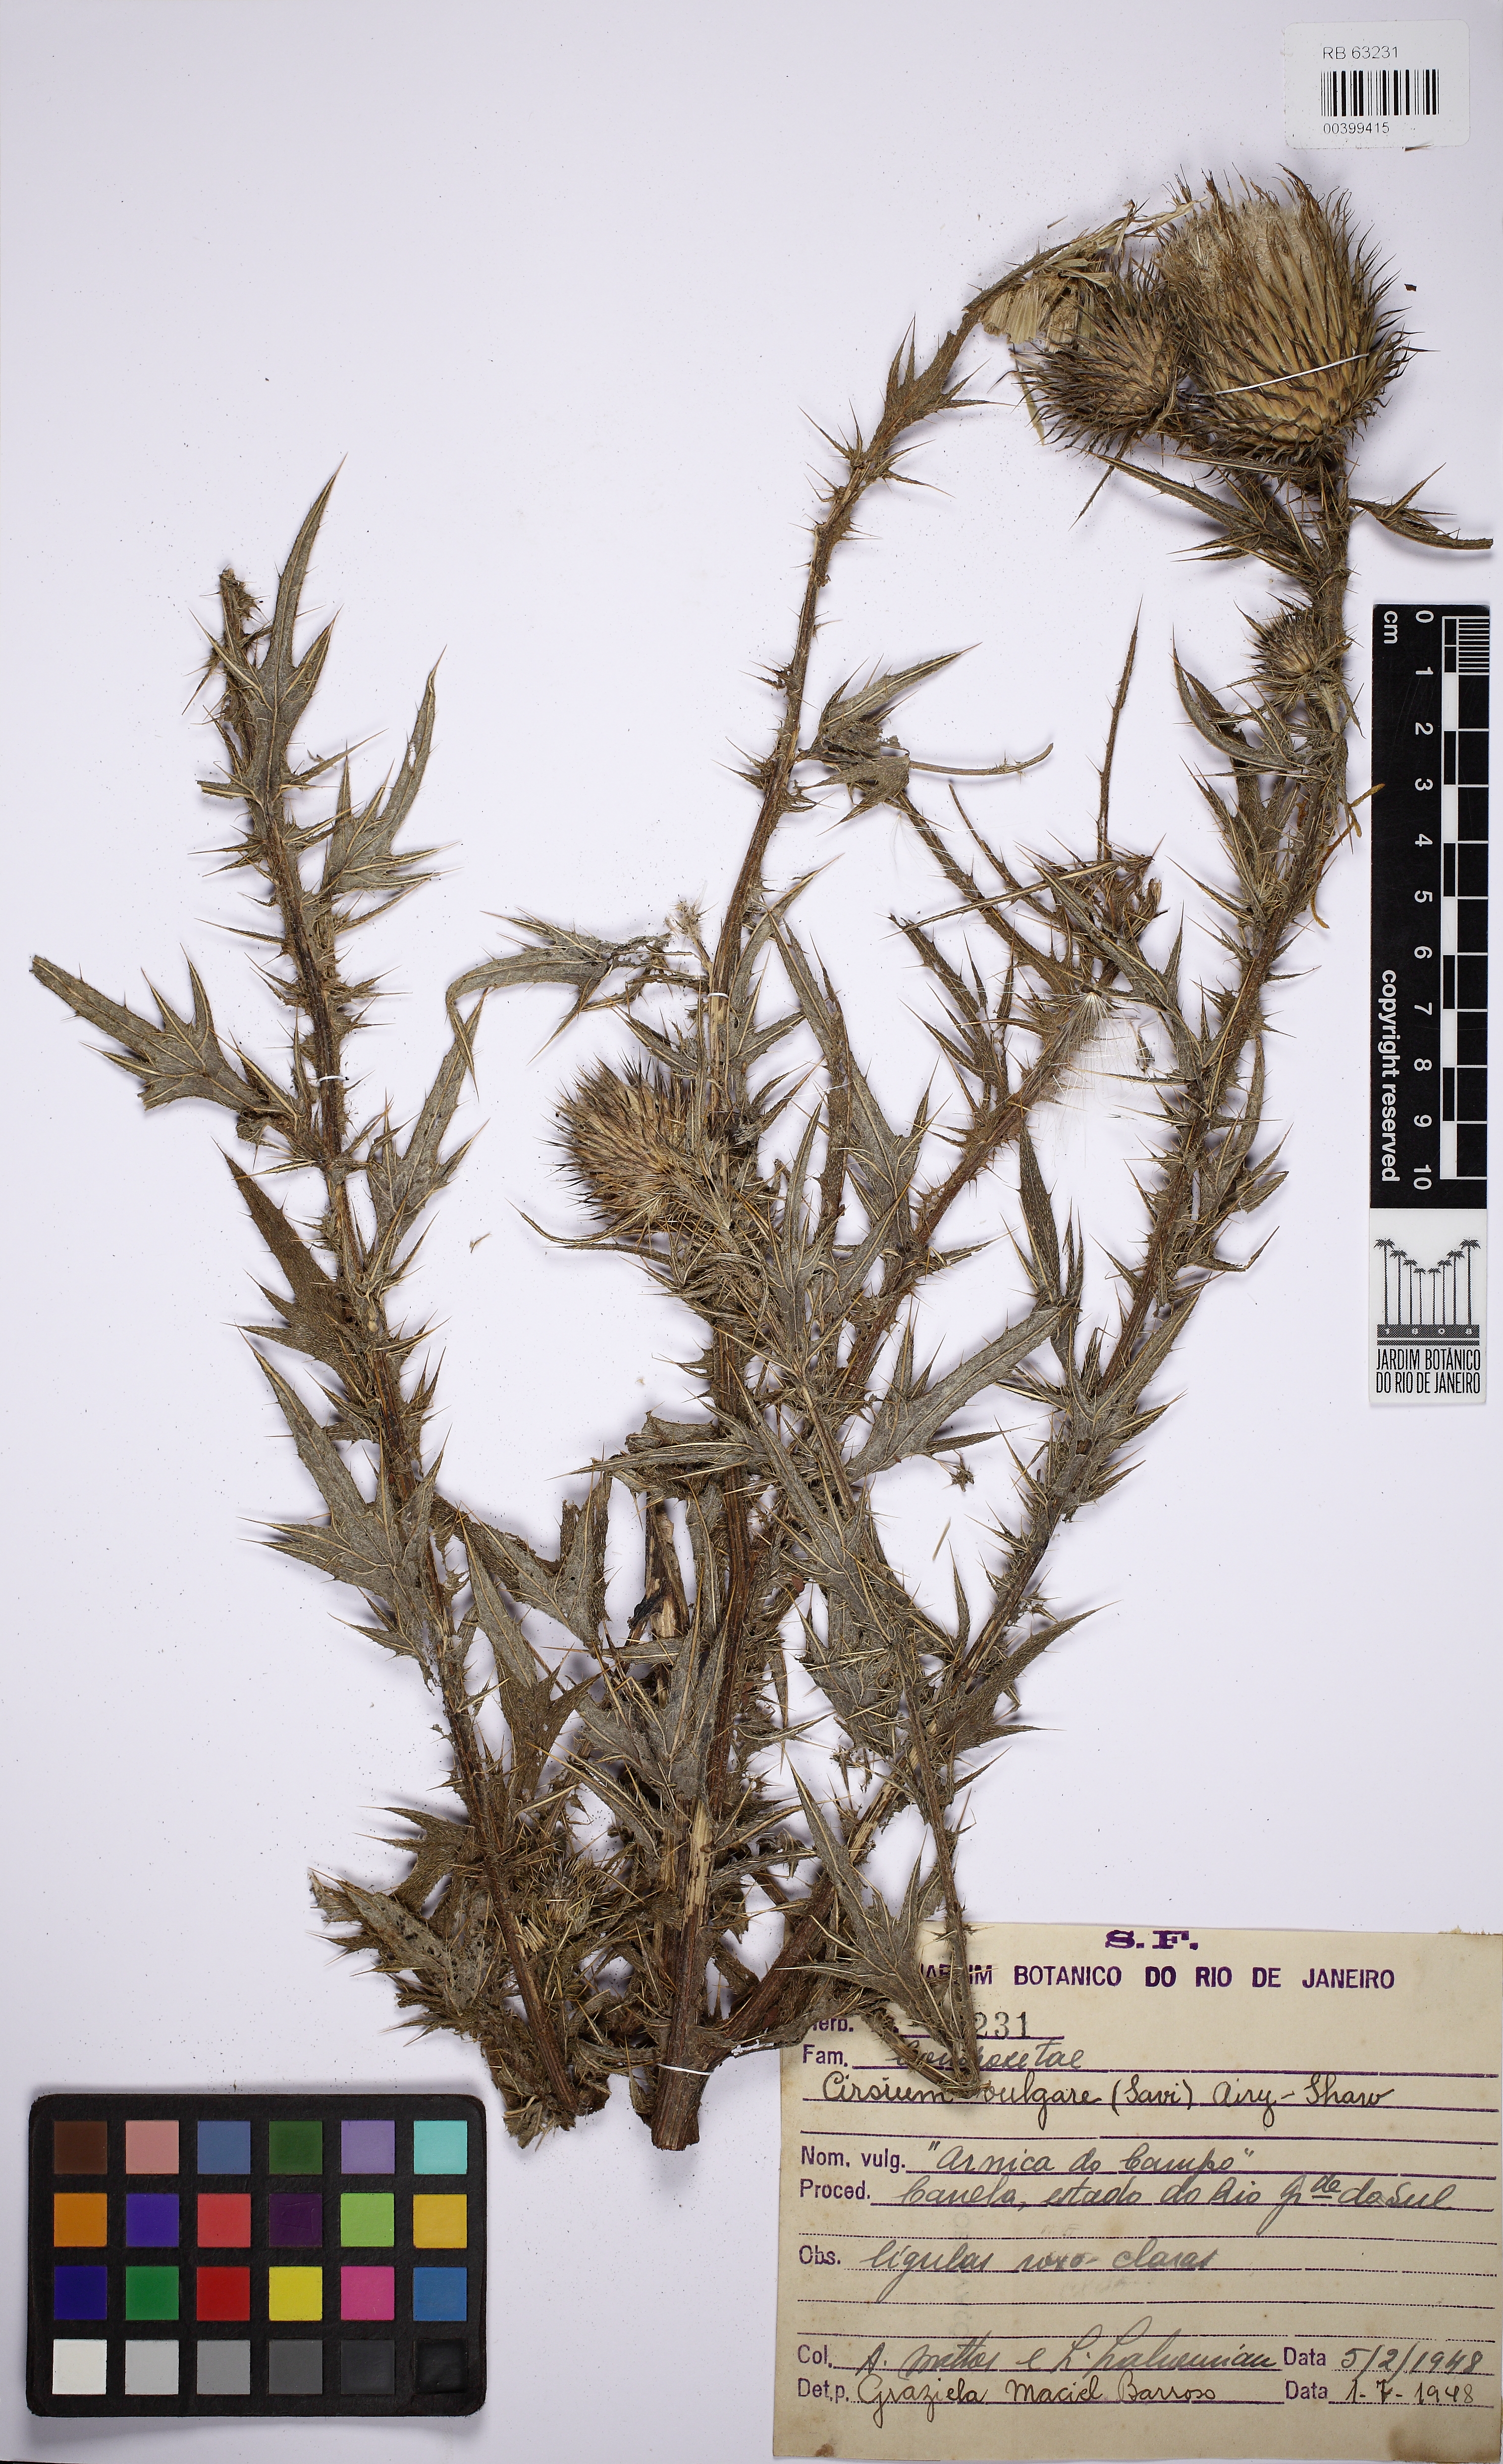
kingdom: Plantae
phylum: Tracheophyta
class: Magnoliopsida
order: Asterales
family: Asteraceae
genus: Cirsium
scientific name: Cirsium vulgare
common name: Bull thistle
